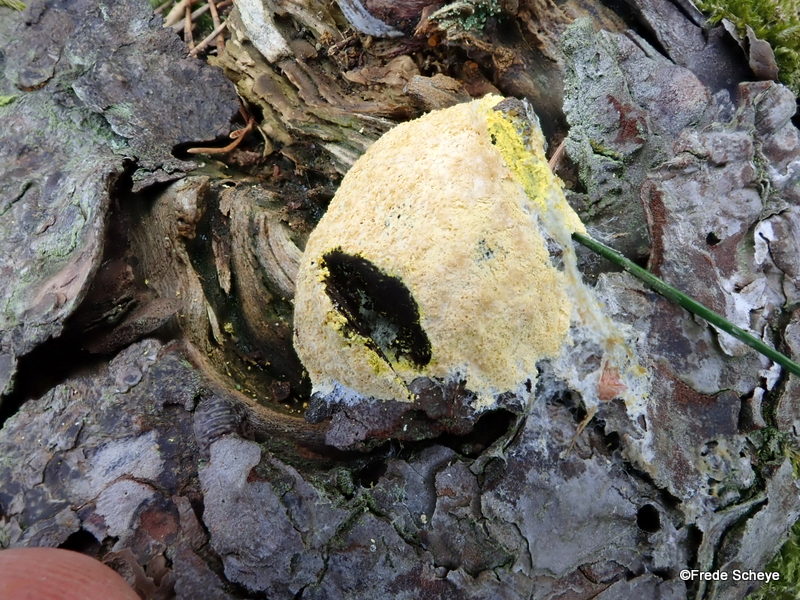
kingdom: Protozoa
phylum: Mycetozoa
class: Myxomycetes
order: Physarales
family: Physaraceae
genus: Fuligo
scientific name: Fuligo septica
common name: gul troldsmør
